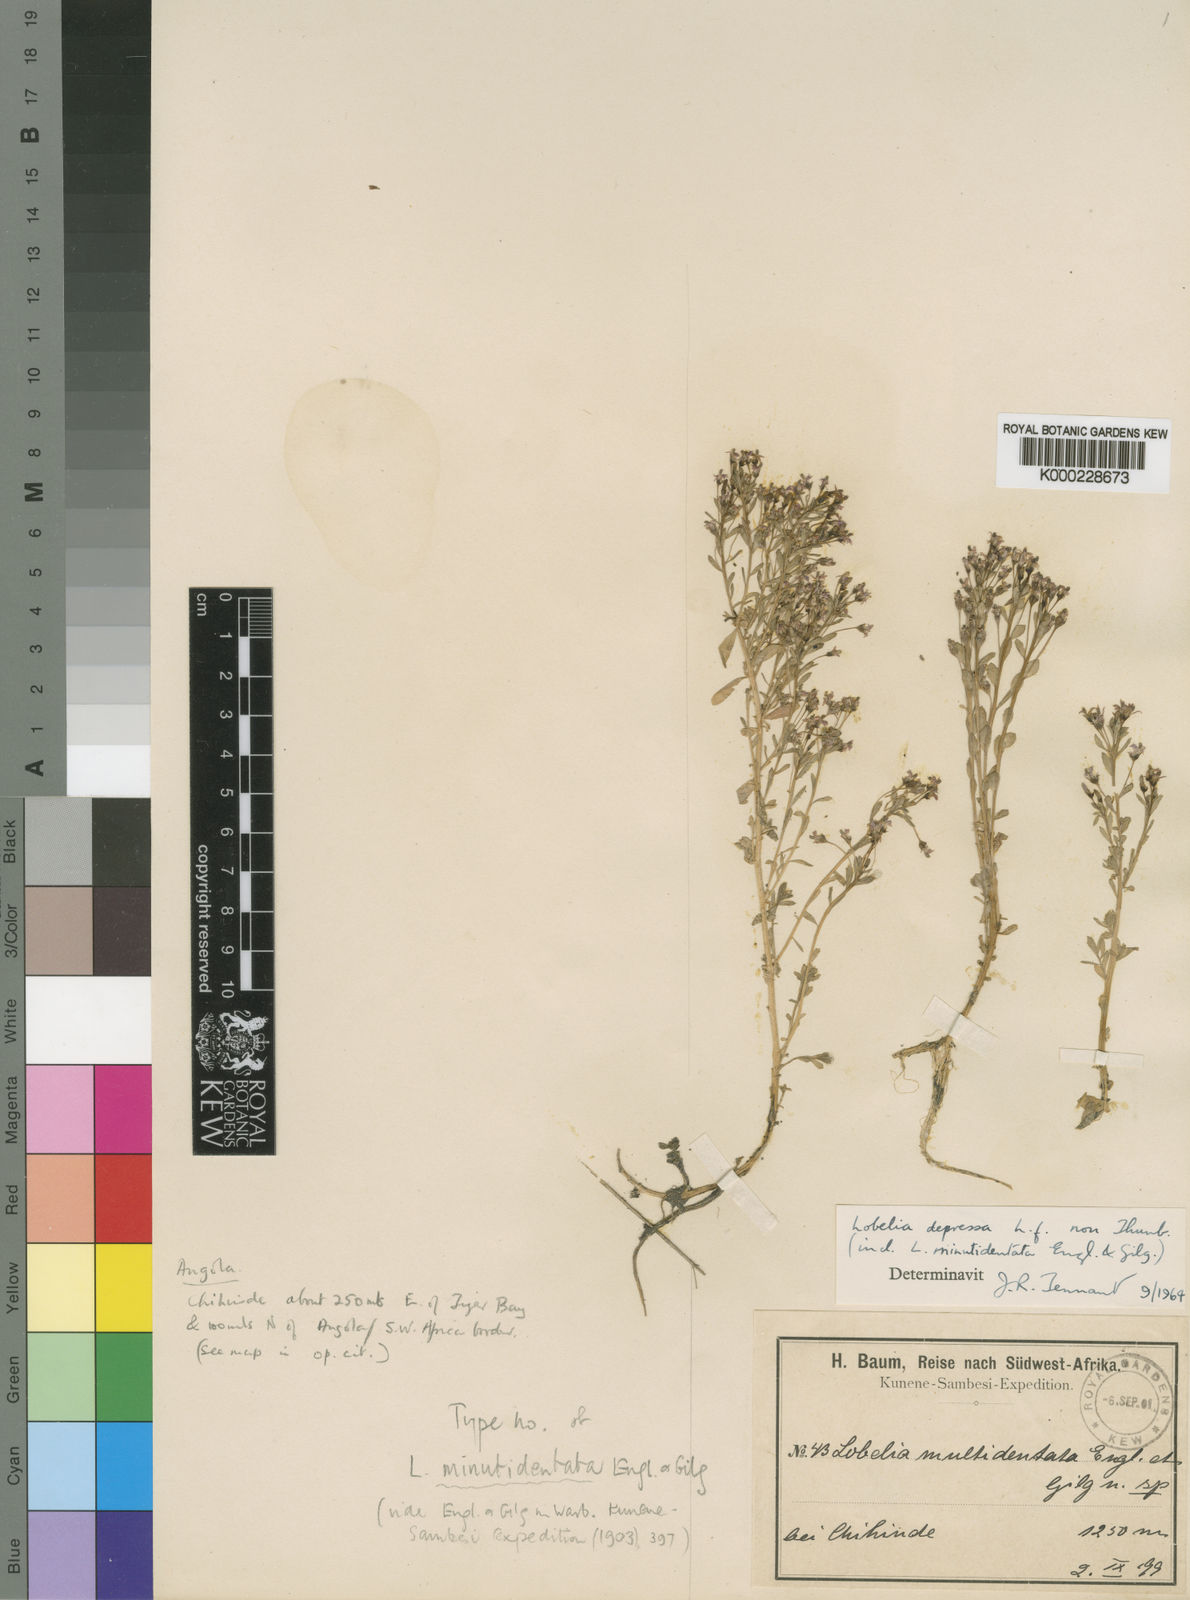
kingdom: Plantae
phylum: Tracheophyta
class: Magnoliopsida
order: Asterales
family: Campanulaceae
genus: Lobelia
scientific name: Lobelia sonderiana
